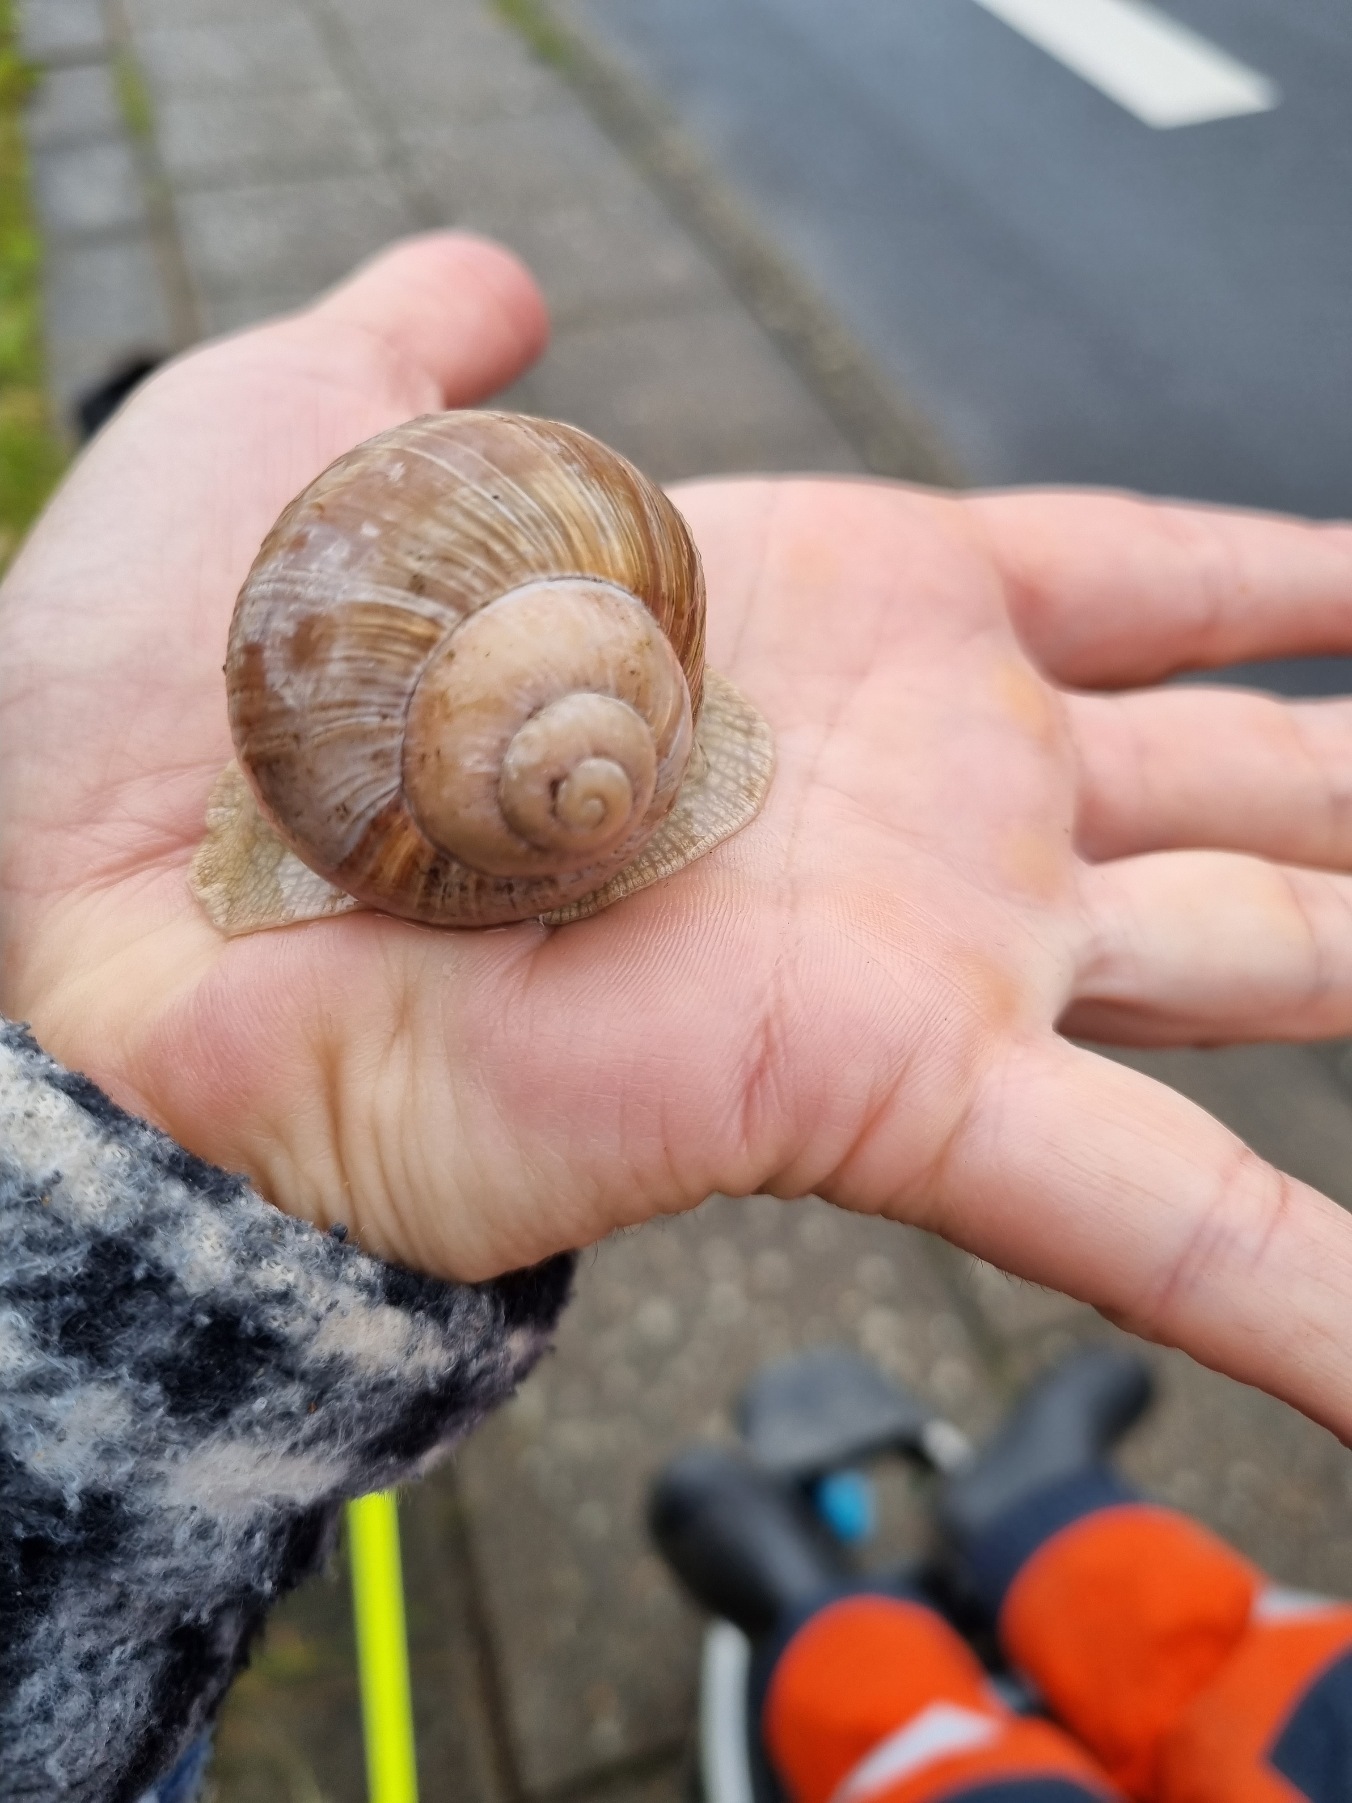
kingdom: Animalia
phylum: Mollusca
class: Gastropoda
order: Stylommatophora
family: Helicidae
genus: Helix
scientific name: Helix pomatia
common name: Vinbjergsnegl
